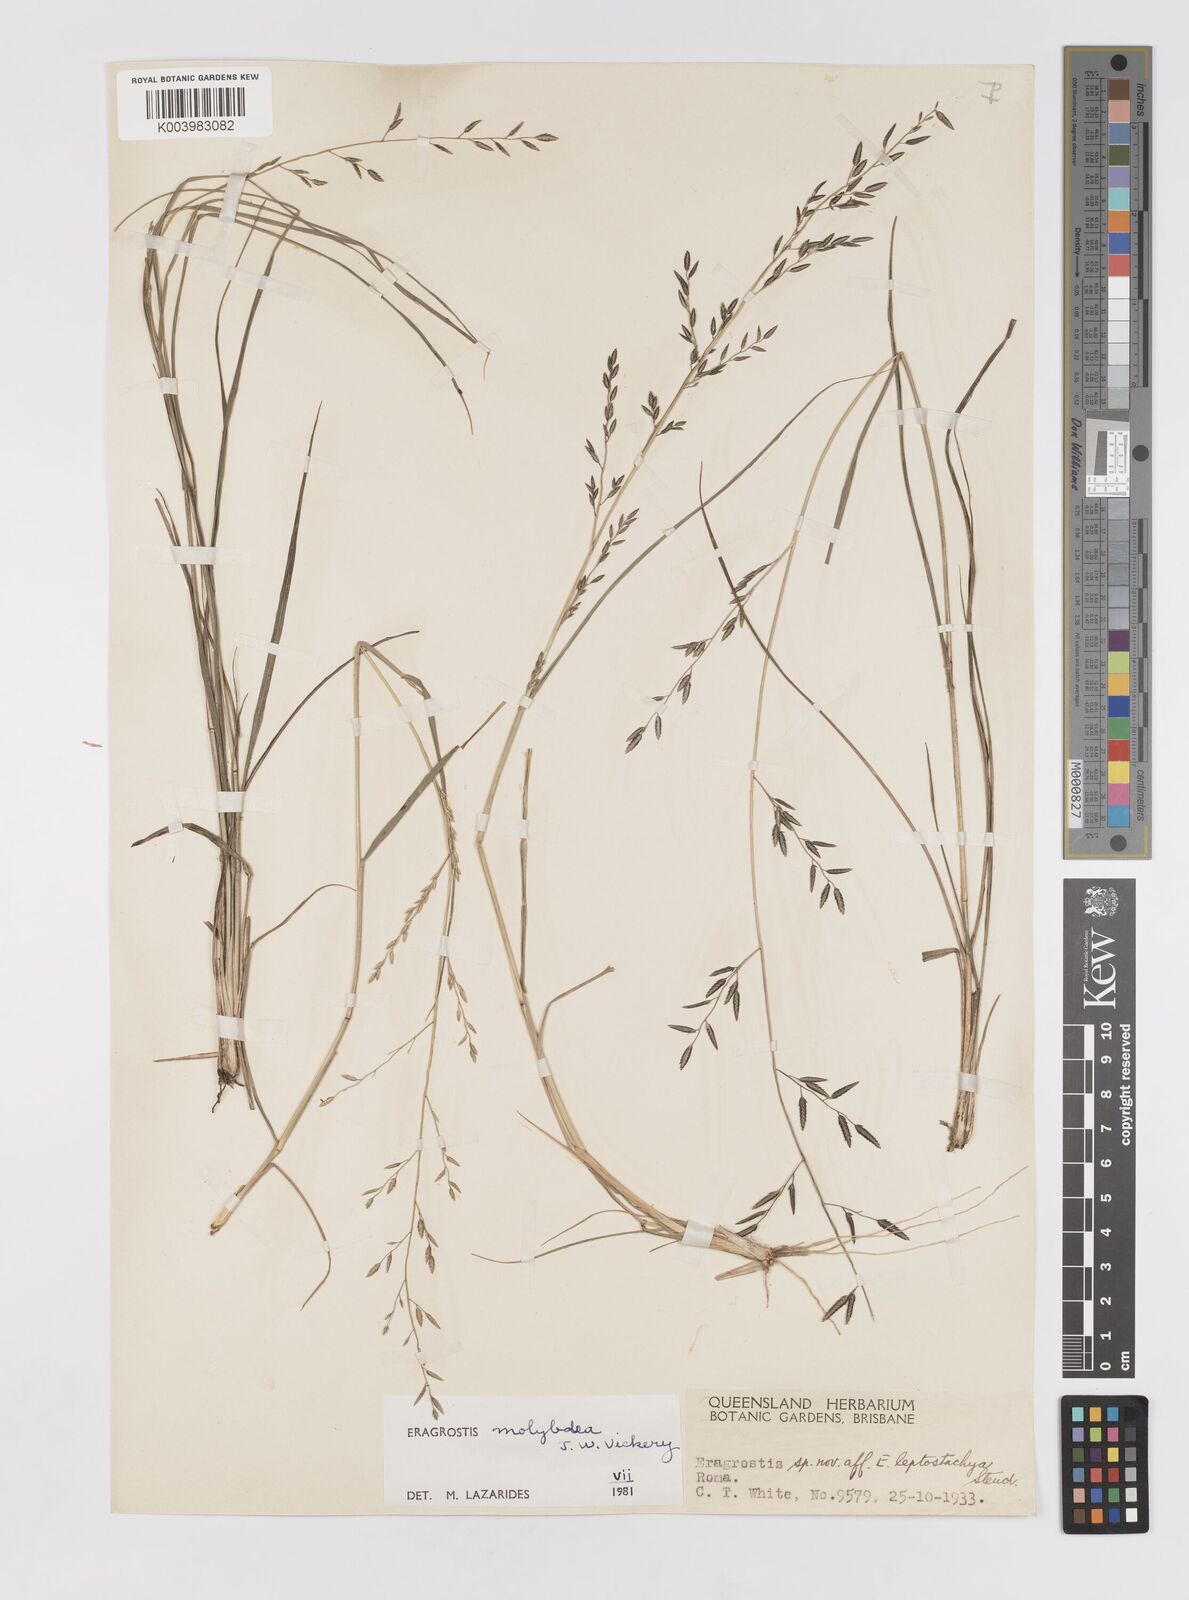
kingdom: Plantae
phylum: Tracheophyta
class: Liliopsida
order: Poales
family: Poaceae
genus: Eragrostis
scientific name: Eragrostis leptostachya
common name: Australian lovegrass
